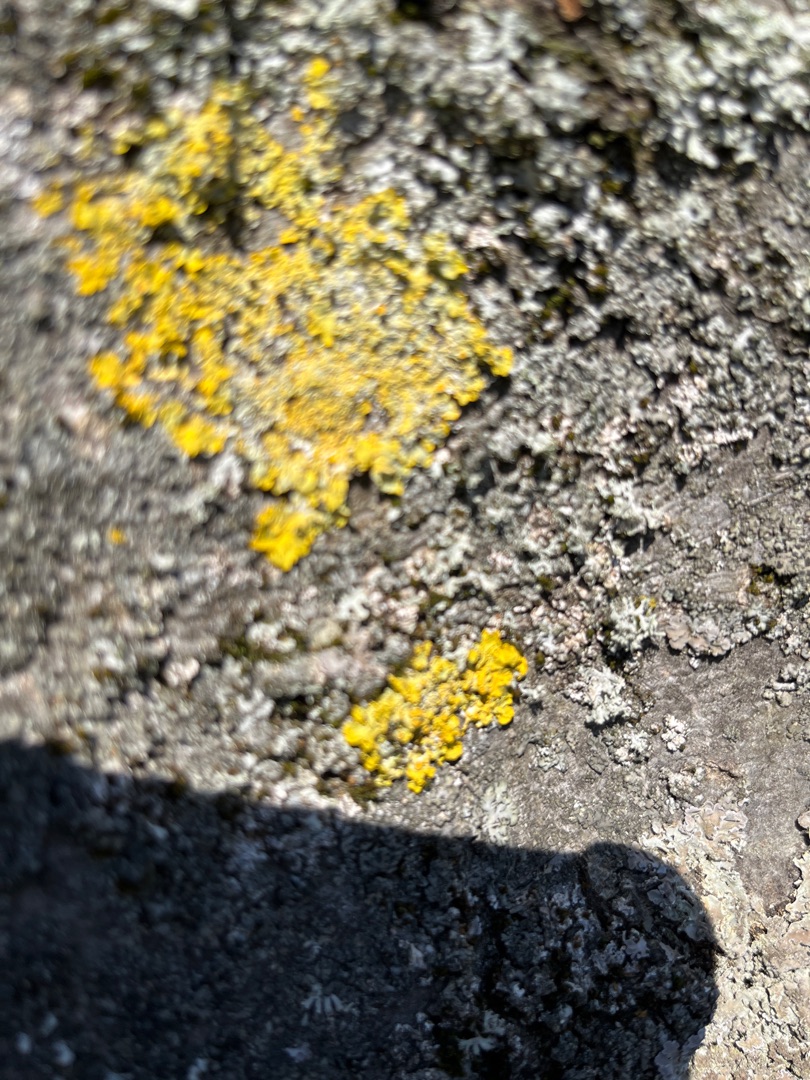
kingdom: Fungi
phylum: Ascomycota
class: Lecanoromycetes
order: Teloschistales
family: Teloschistaceae
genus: Xanthoria
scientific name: Xanthoria parietina
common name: Almindelig væggelav
